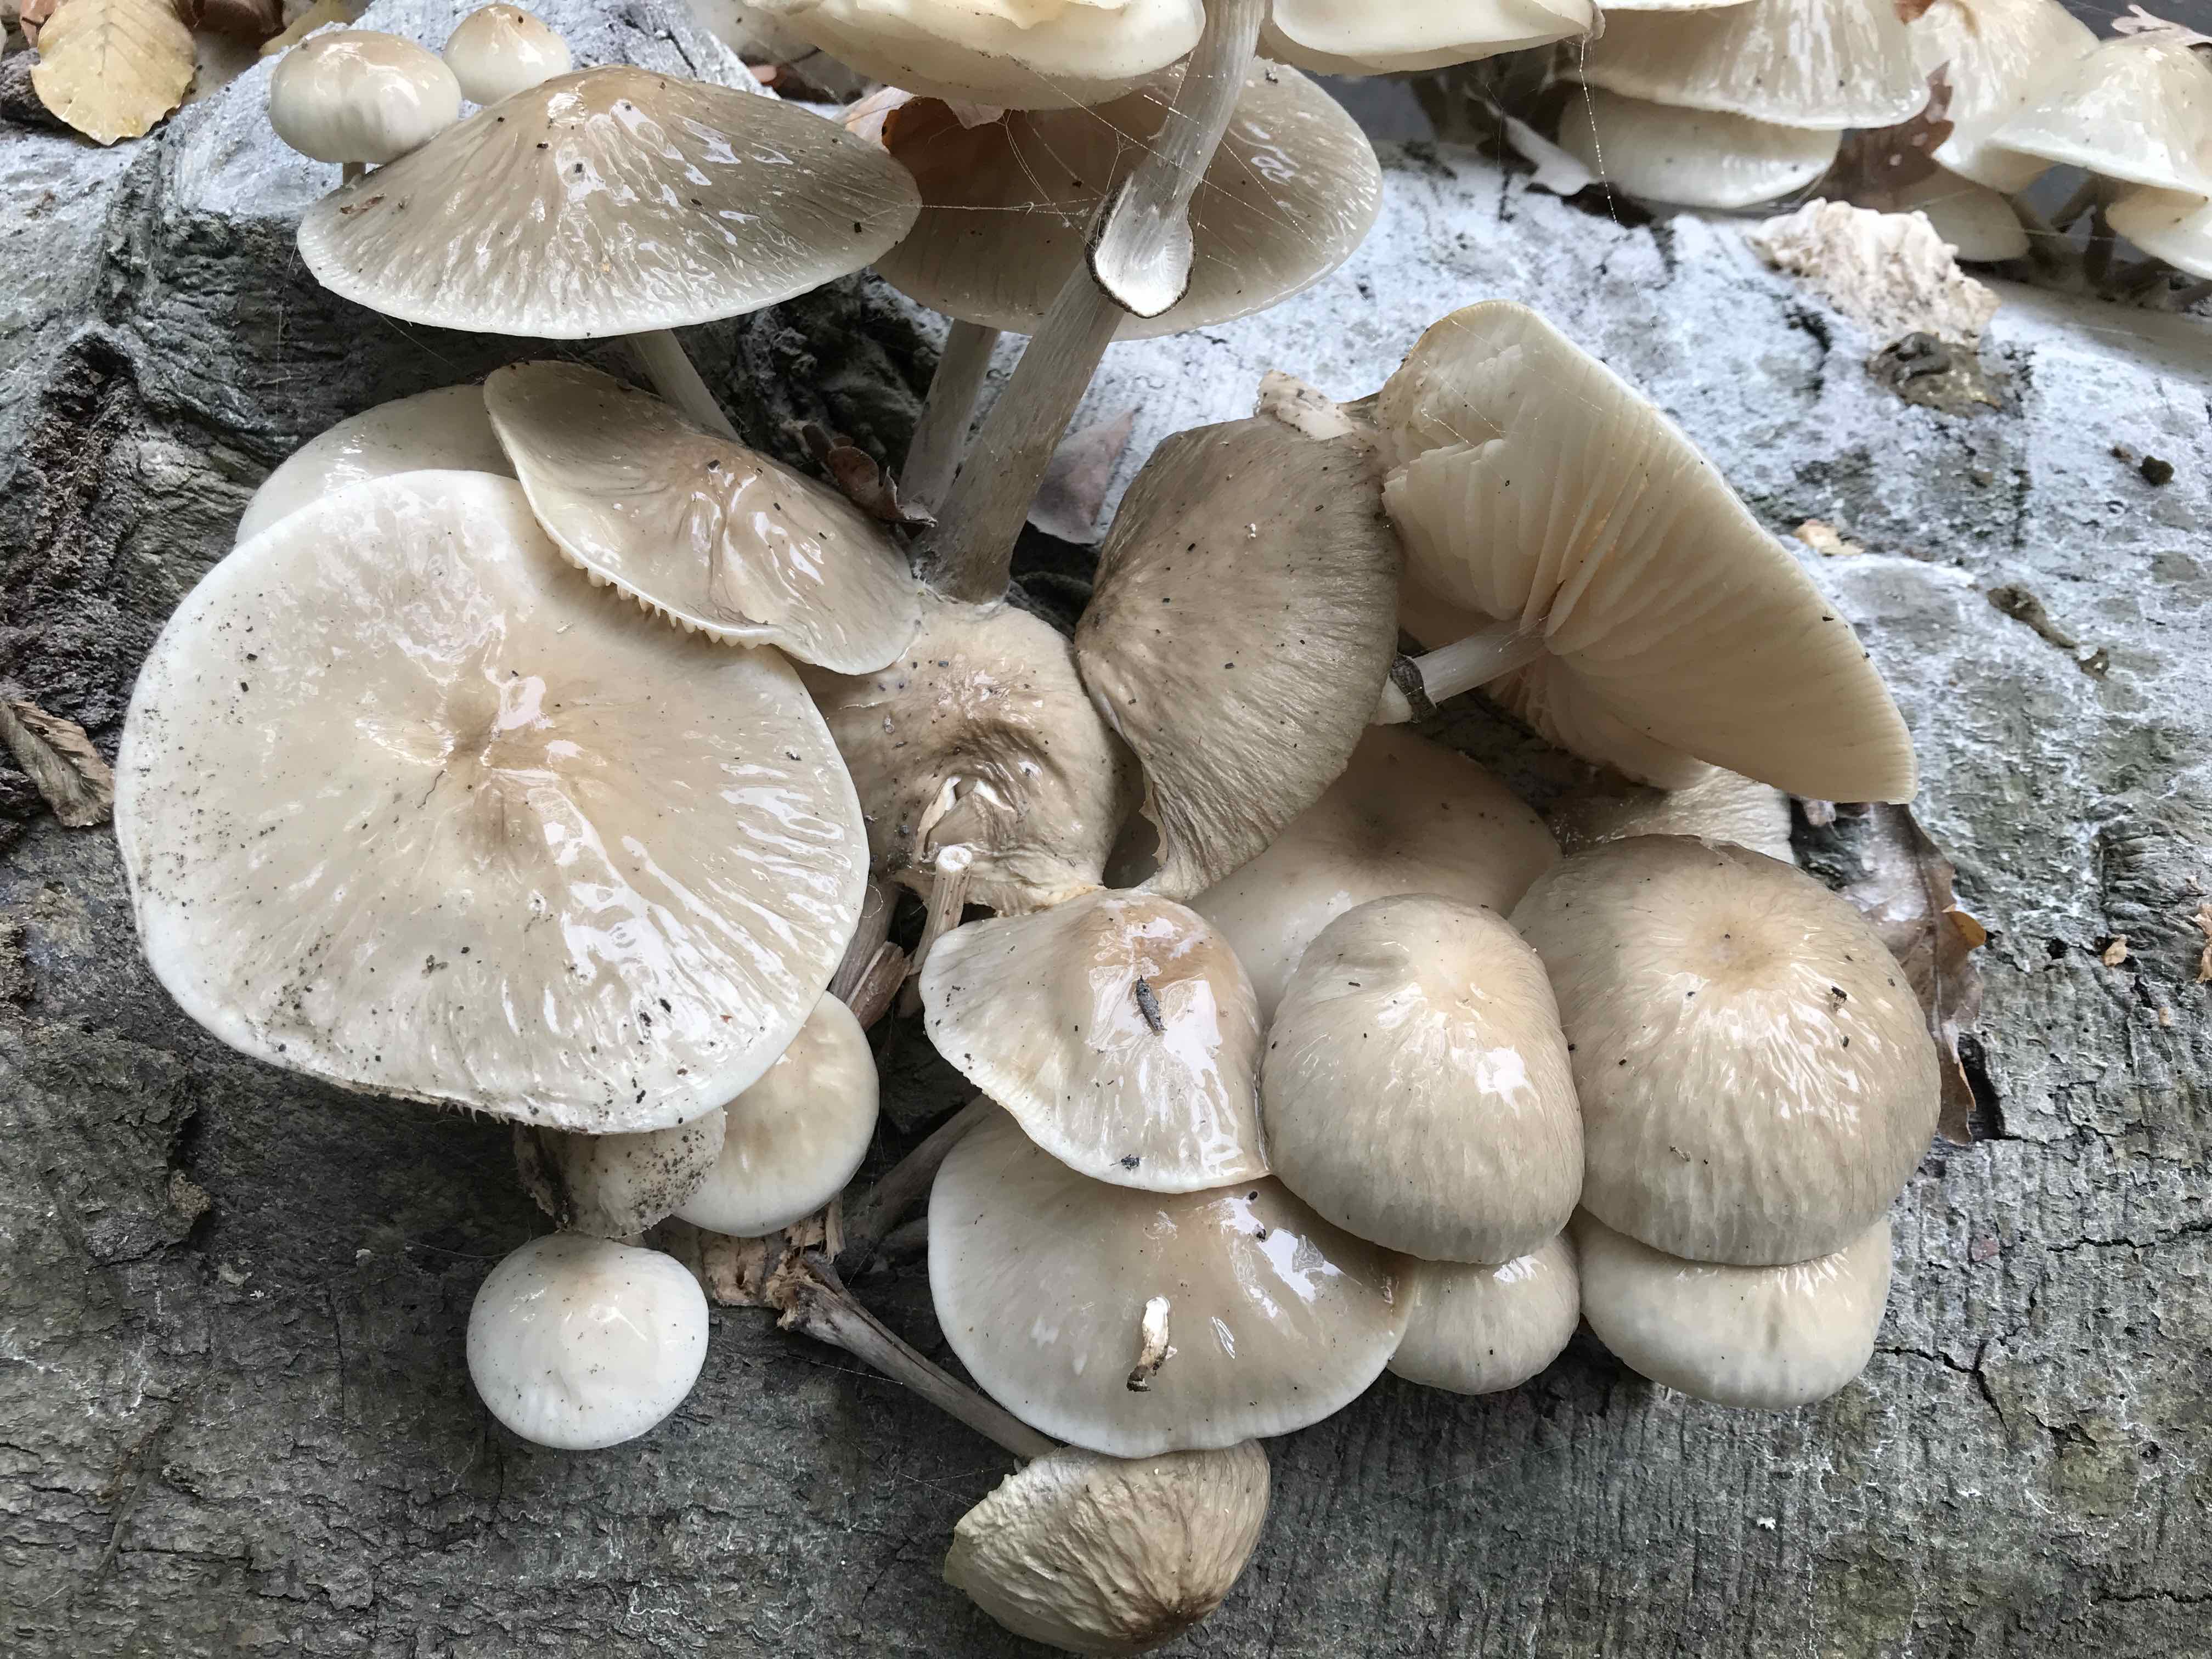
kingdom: Fungi
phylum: Basidiomycota
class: Agaricomycetes
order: Agaricales
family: Physalacriaceae
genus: Mucidula
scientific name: Mucidula mucida
